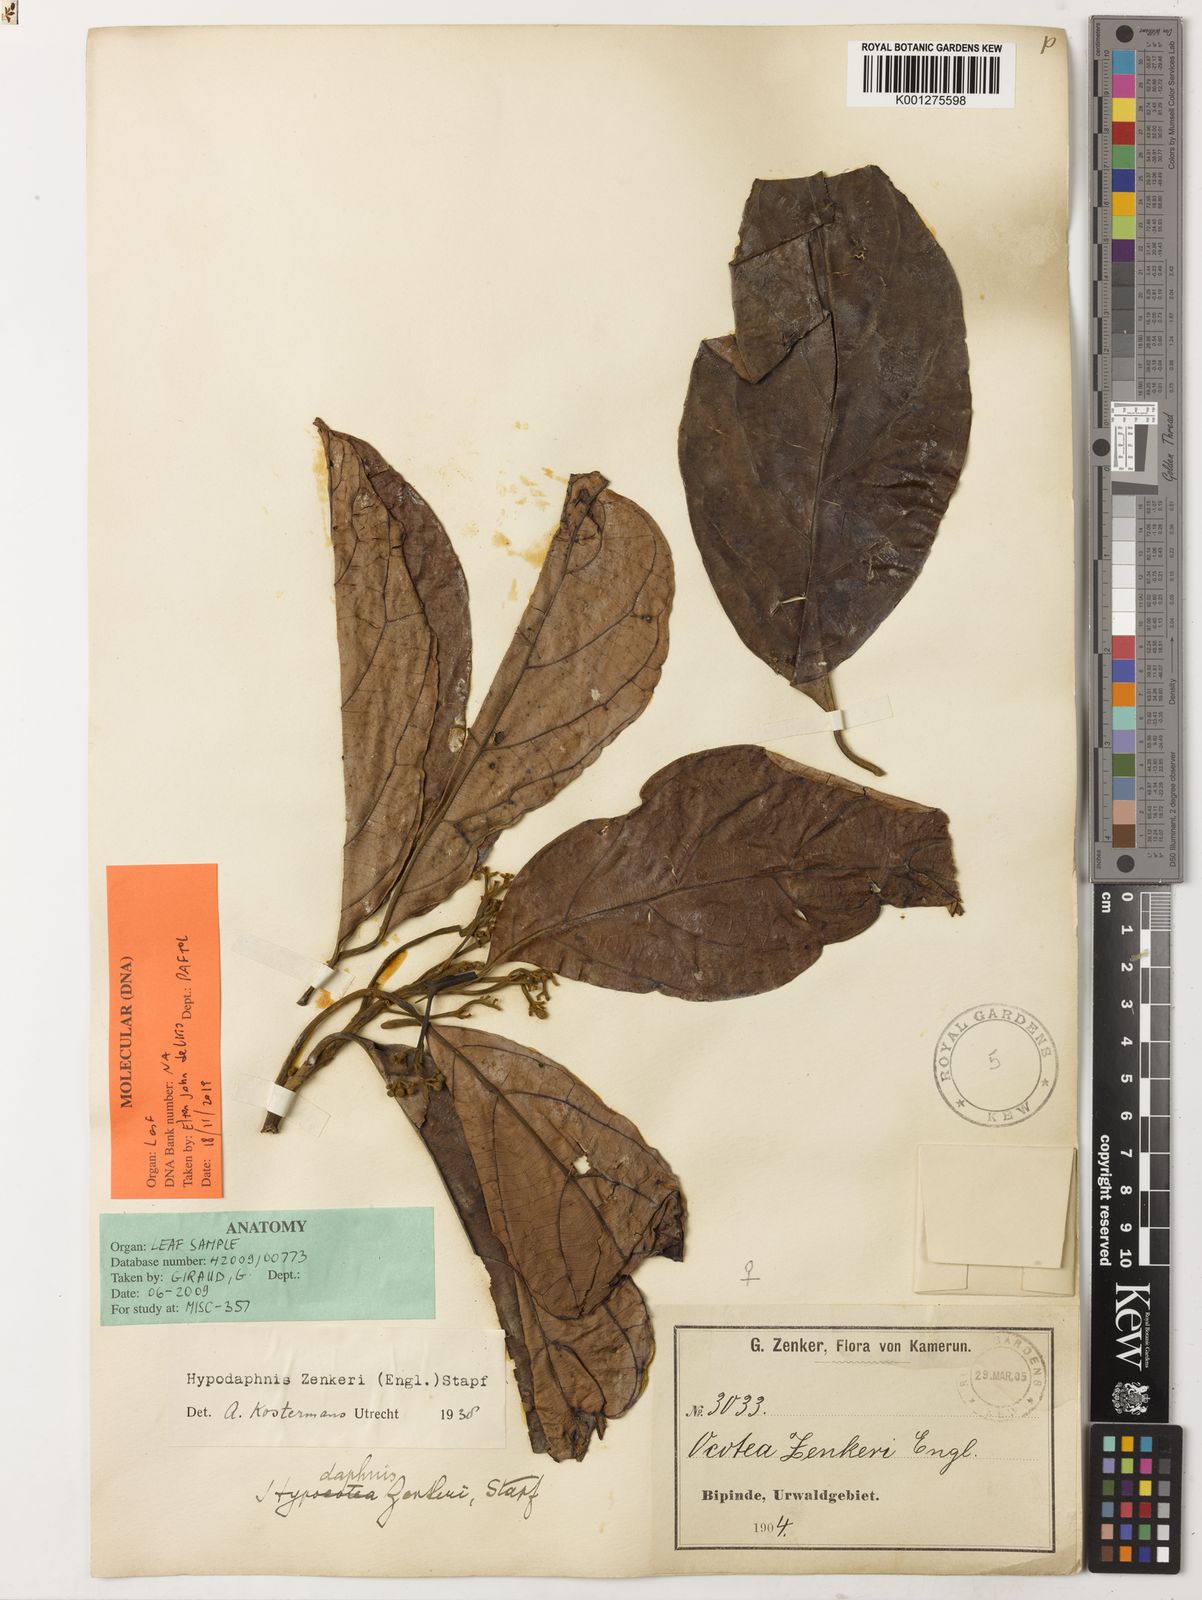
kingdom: Plantae
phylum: Tracheophyta
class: Magnoliopsida
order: Laurales
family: Lauraceae
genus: Hypodaphnis
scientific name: Hypodaphnis zenkeri
